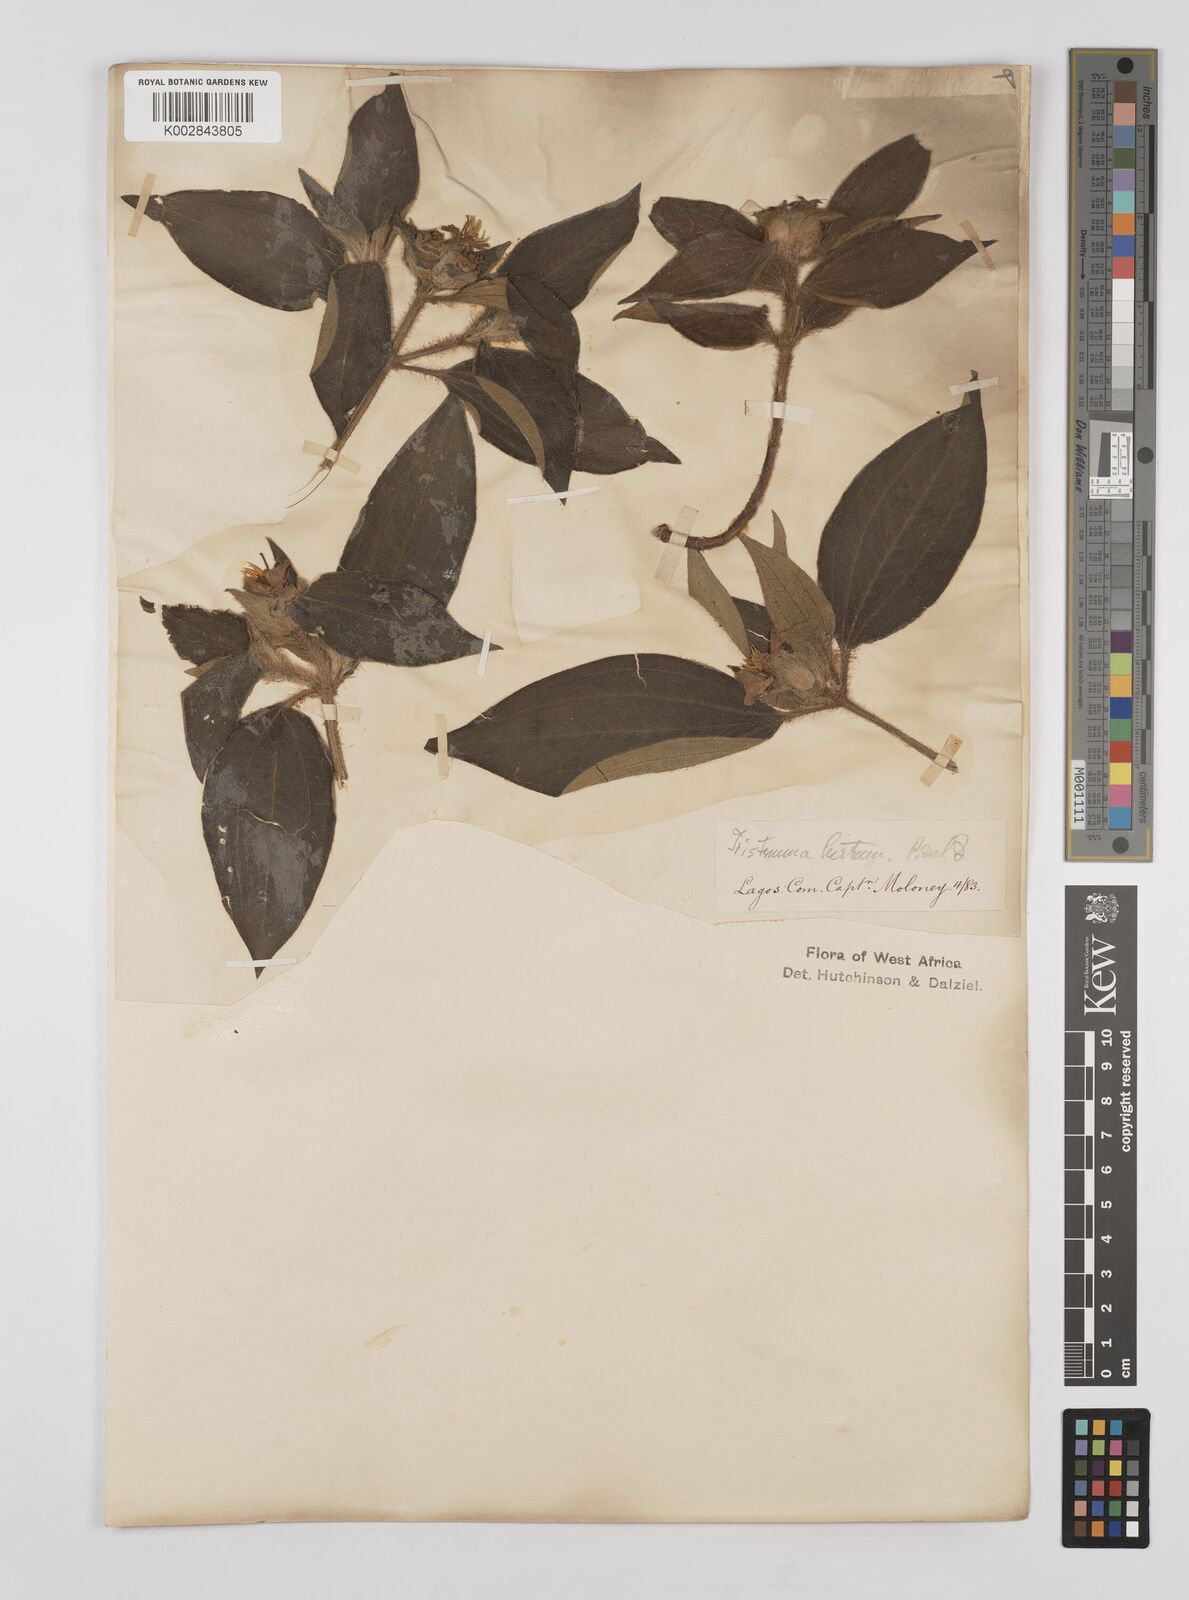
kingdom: Plantae
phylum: Tracheophyta
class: Magnoliopsida
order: Myrtales
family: Melastomataceae
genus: Tristemma
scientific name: Tristemma hirtum
